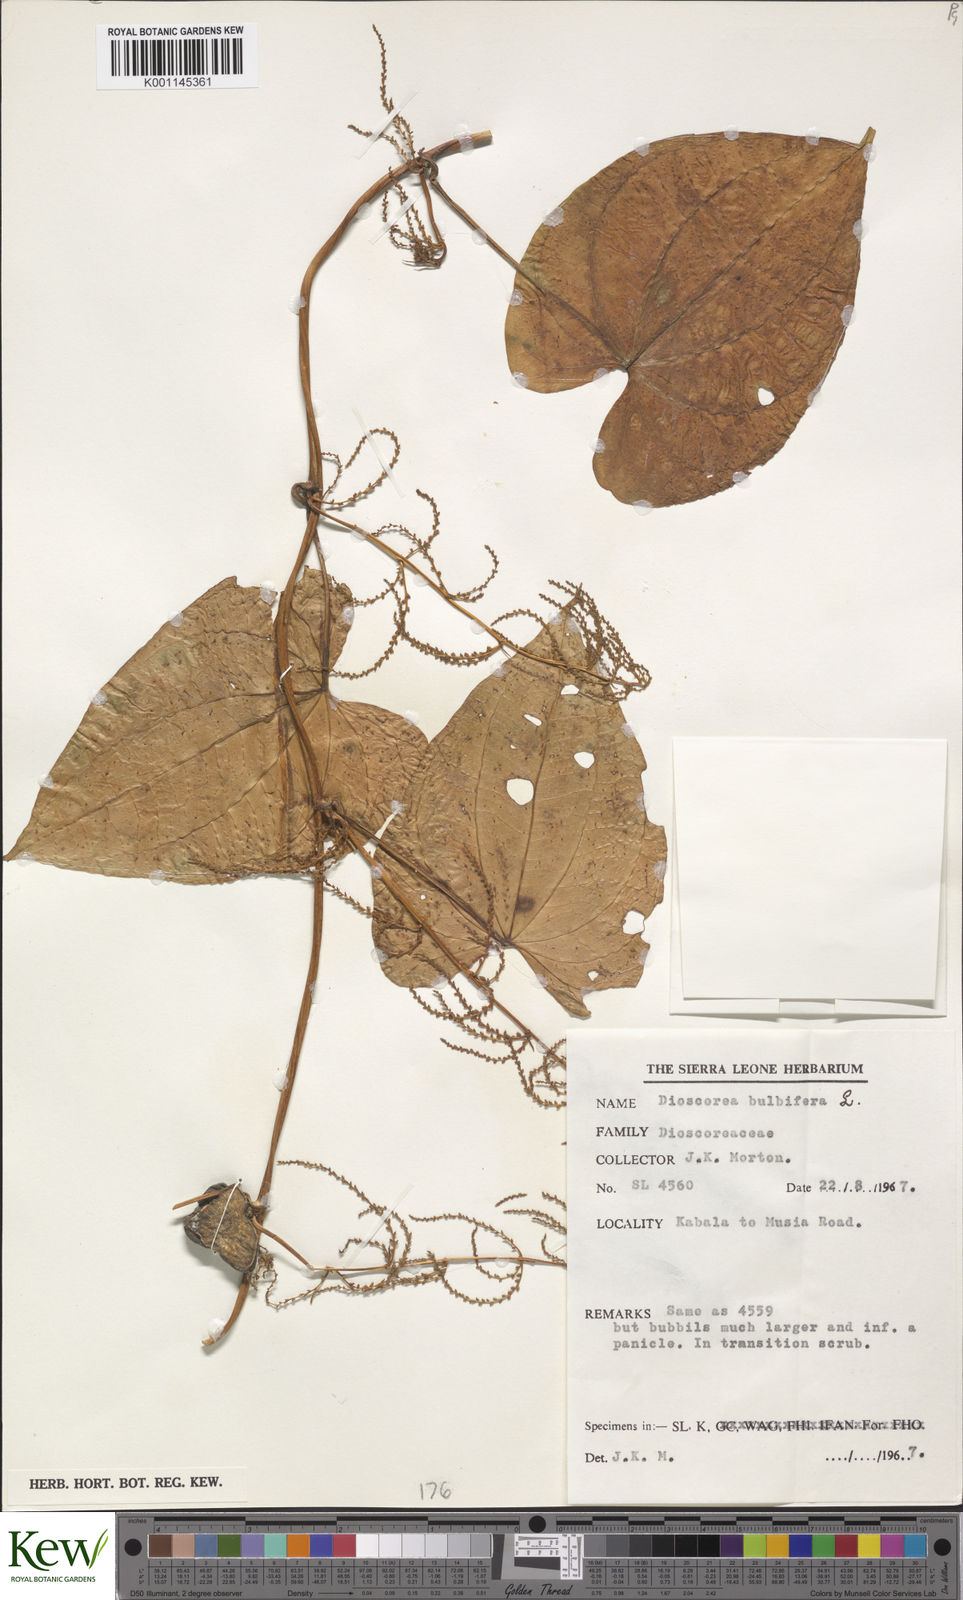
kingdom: Plantae
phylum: Tracheophyta
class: Liliopsida
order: Dioscoreales
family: Dioscoreaceae
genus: Dioscorea
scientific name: Dioscorea bulbifera
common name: Air yam
